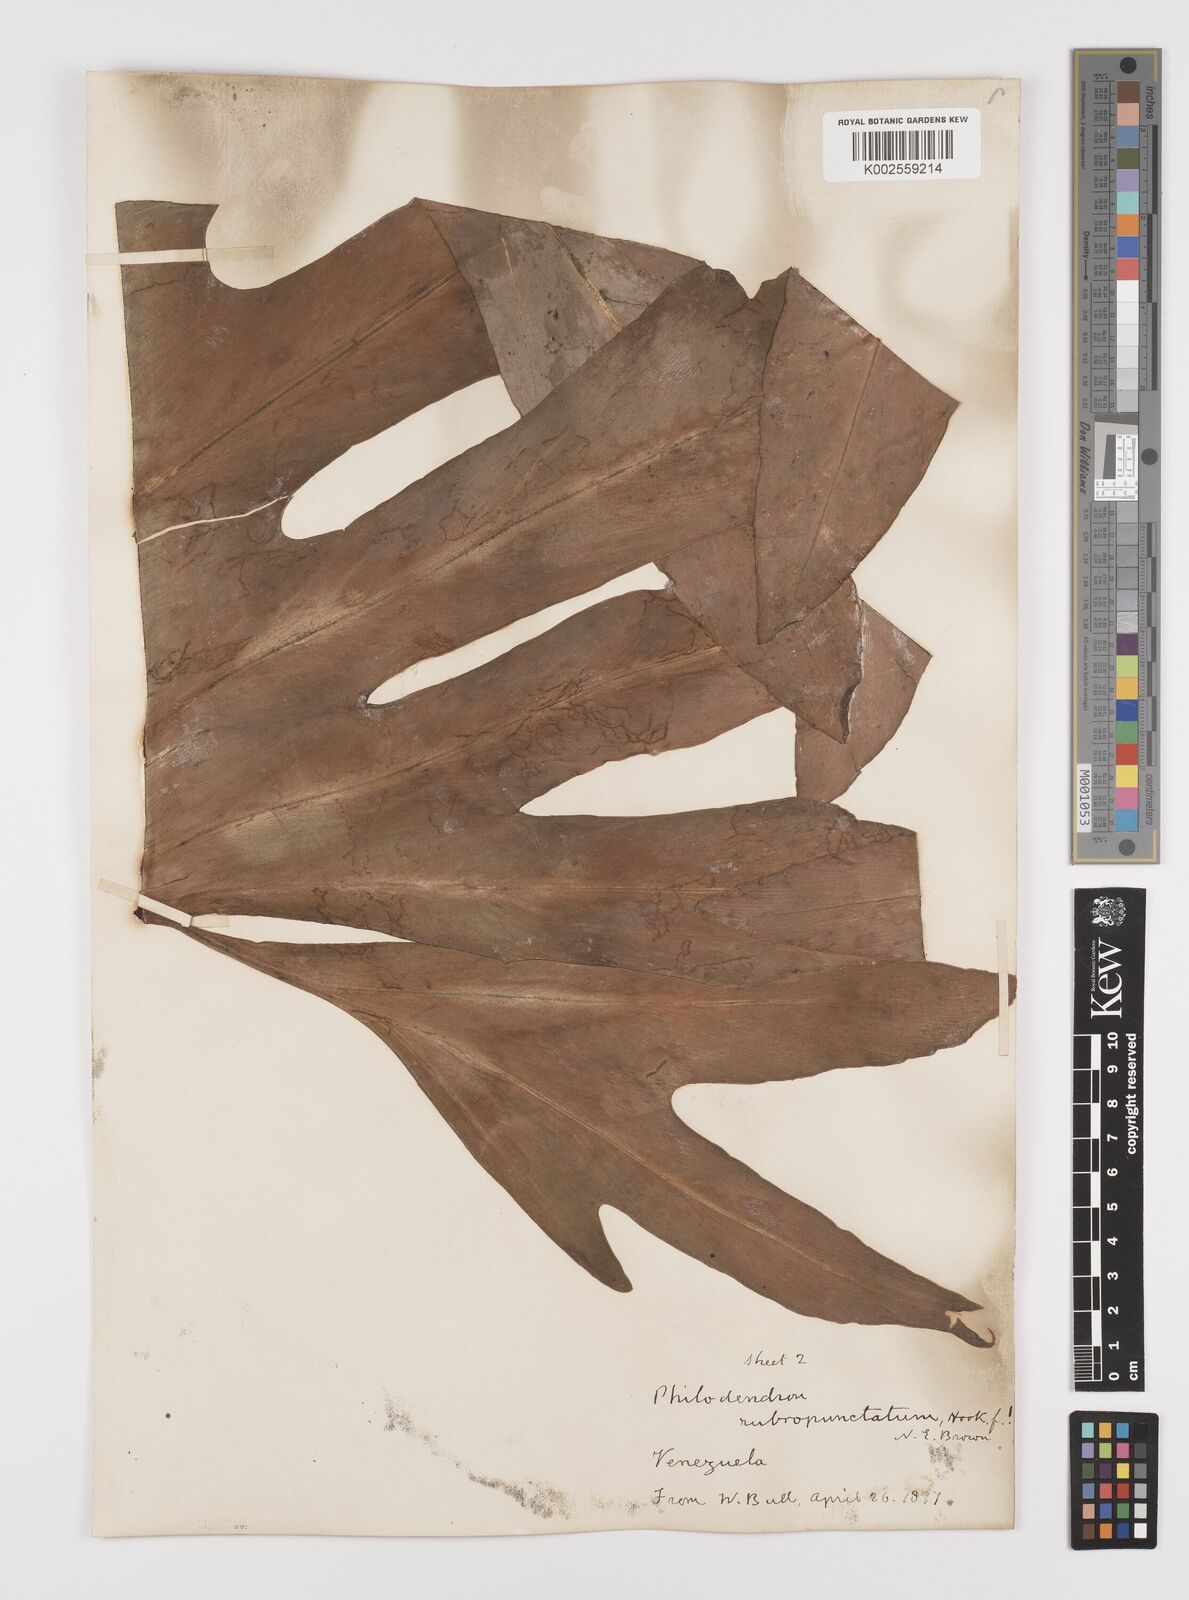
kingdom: Plantae
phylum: Tracheophyta
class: Liliopsida
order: Alismatales
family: Araceae
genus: Philodendron
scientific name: Philodendron pinnatifidum
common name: Comb-leaf philodendron
